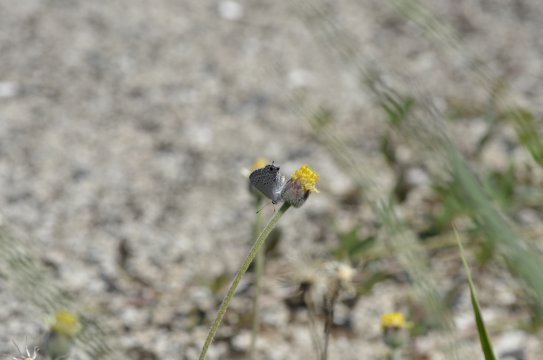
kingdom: Animalia
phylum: Arthropoda
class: Insecta
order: Lepidoptera
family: Lycaenidae
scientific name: Lycaenidae
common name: Gossamerwings
